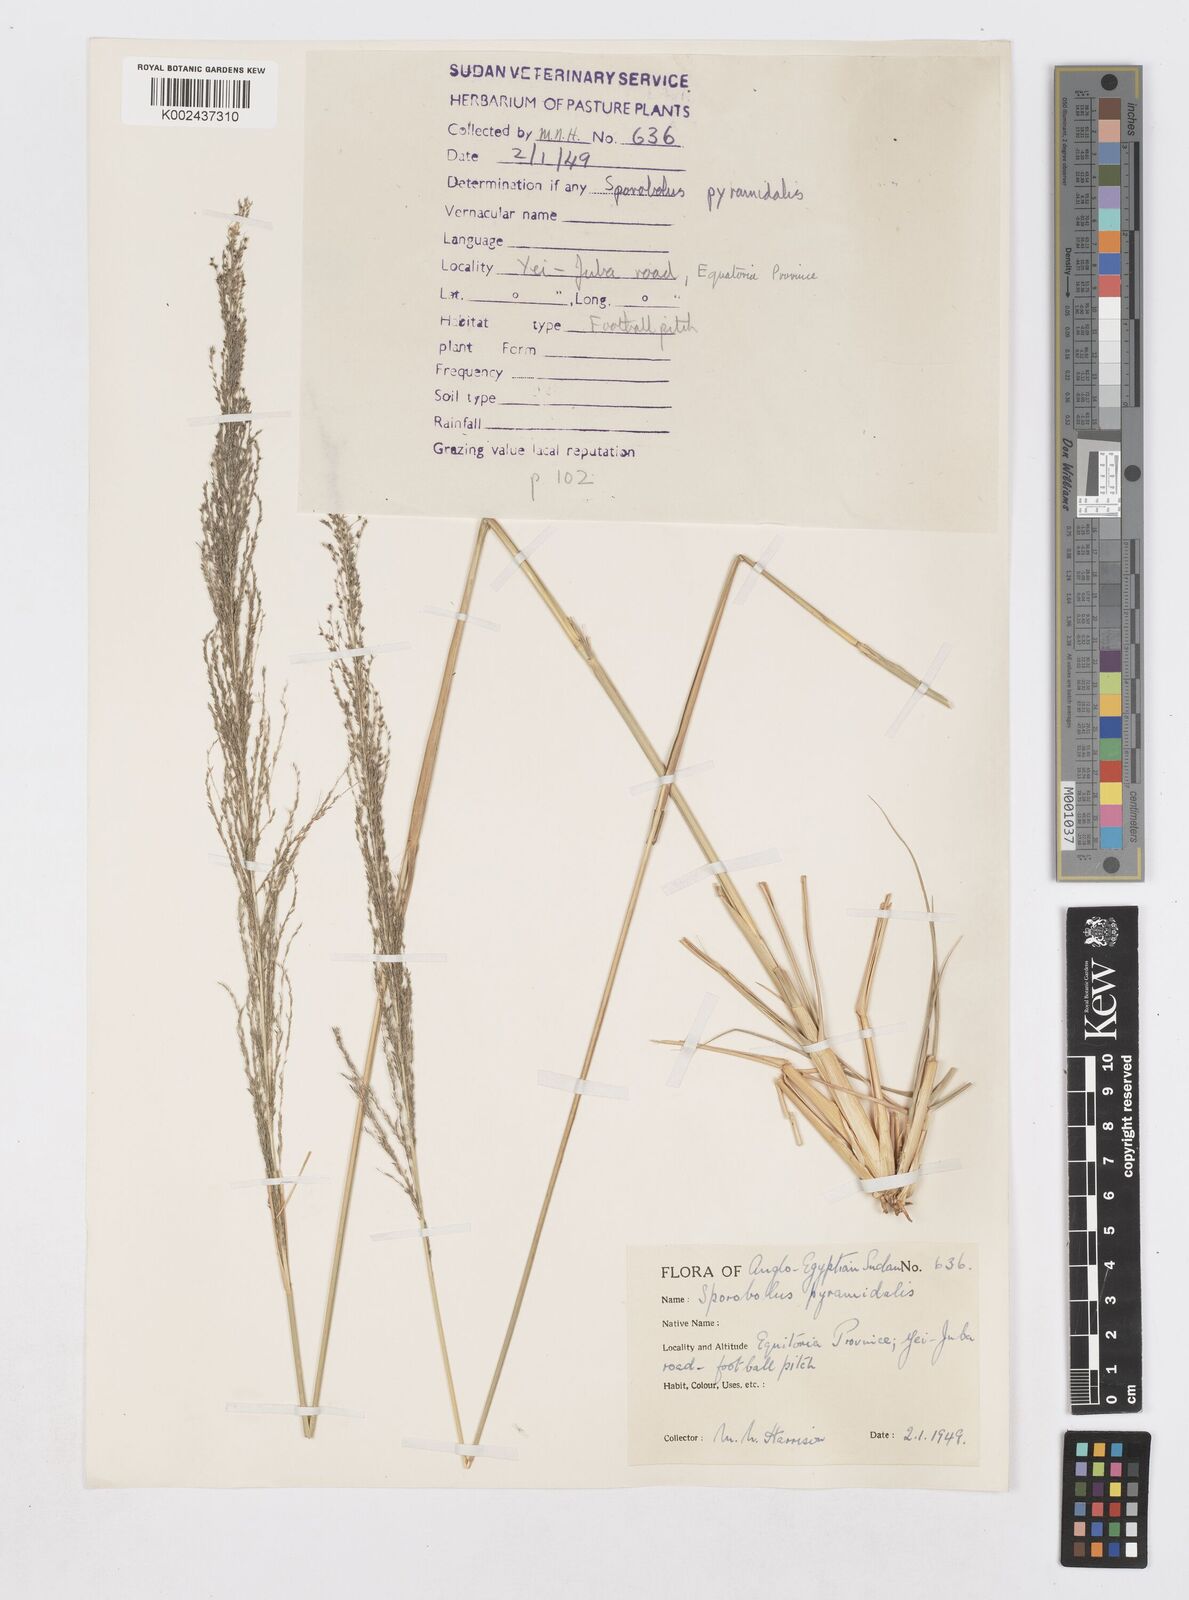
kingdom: Plantae
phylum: Tracheophyta
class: Liliopsida
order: Poales
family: Poaceae
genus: Sporobolus
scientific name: Sporobolus pyramidalis
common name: West indian dropseed
